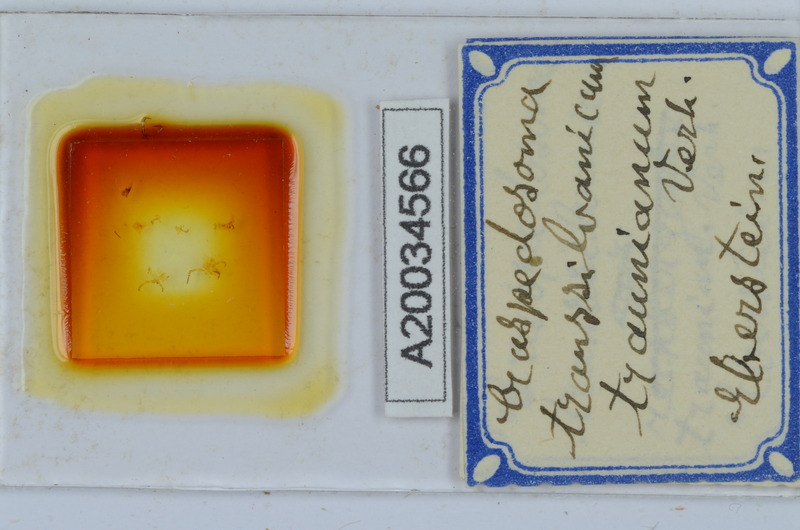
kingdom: Animalia
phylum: Arthropoda
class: Diplopoda
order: Chordeumatida
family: Craspedosomatidae
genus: Craspedosoma
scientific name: Craspedosoma transsilvanicum
